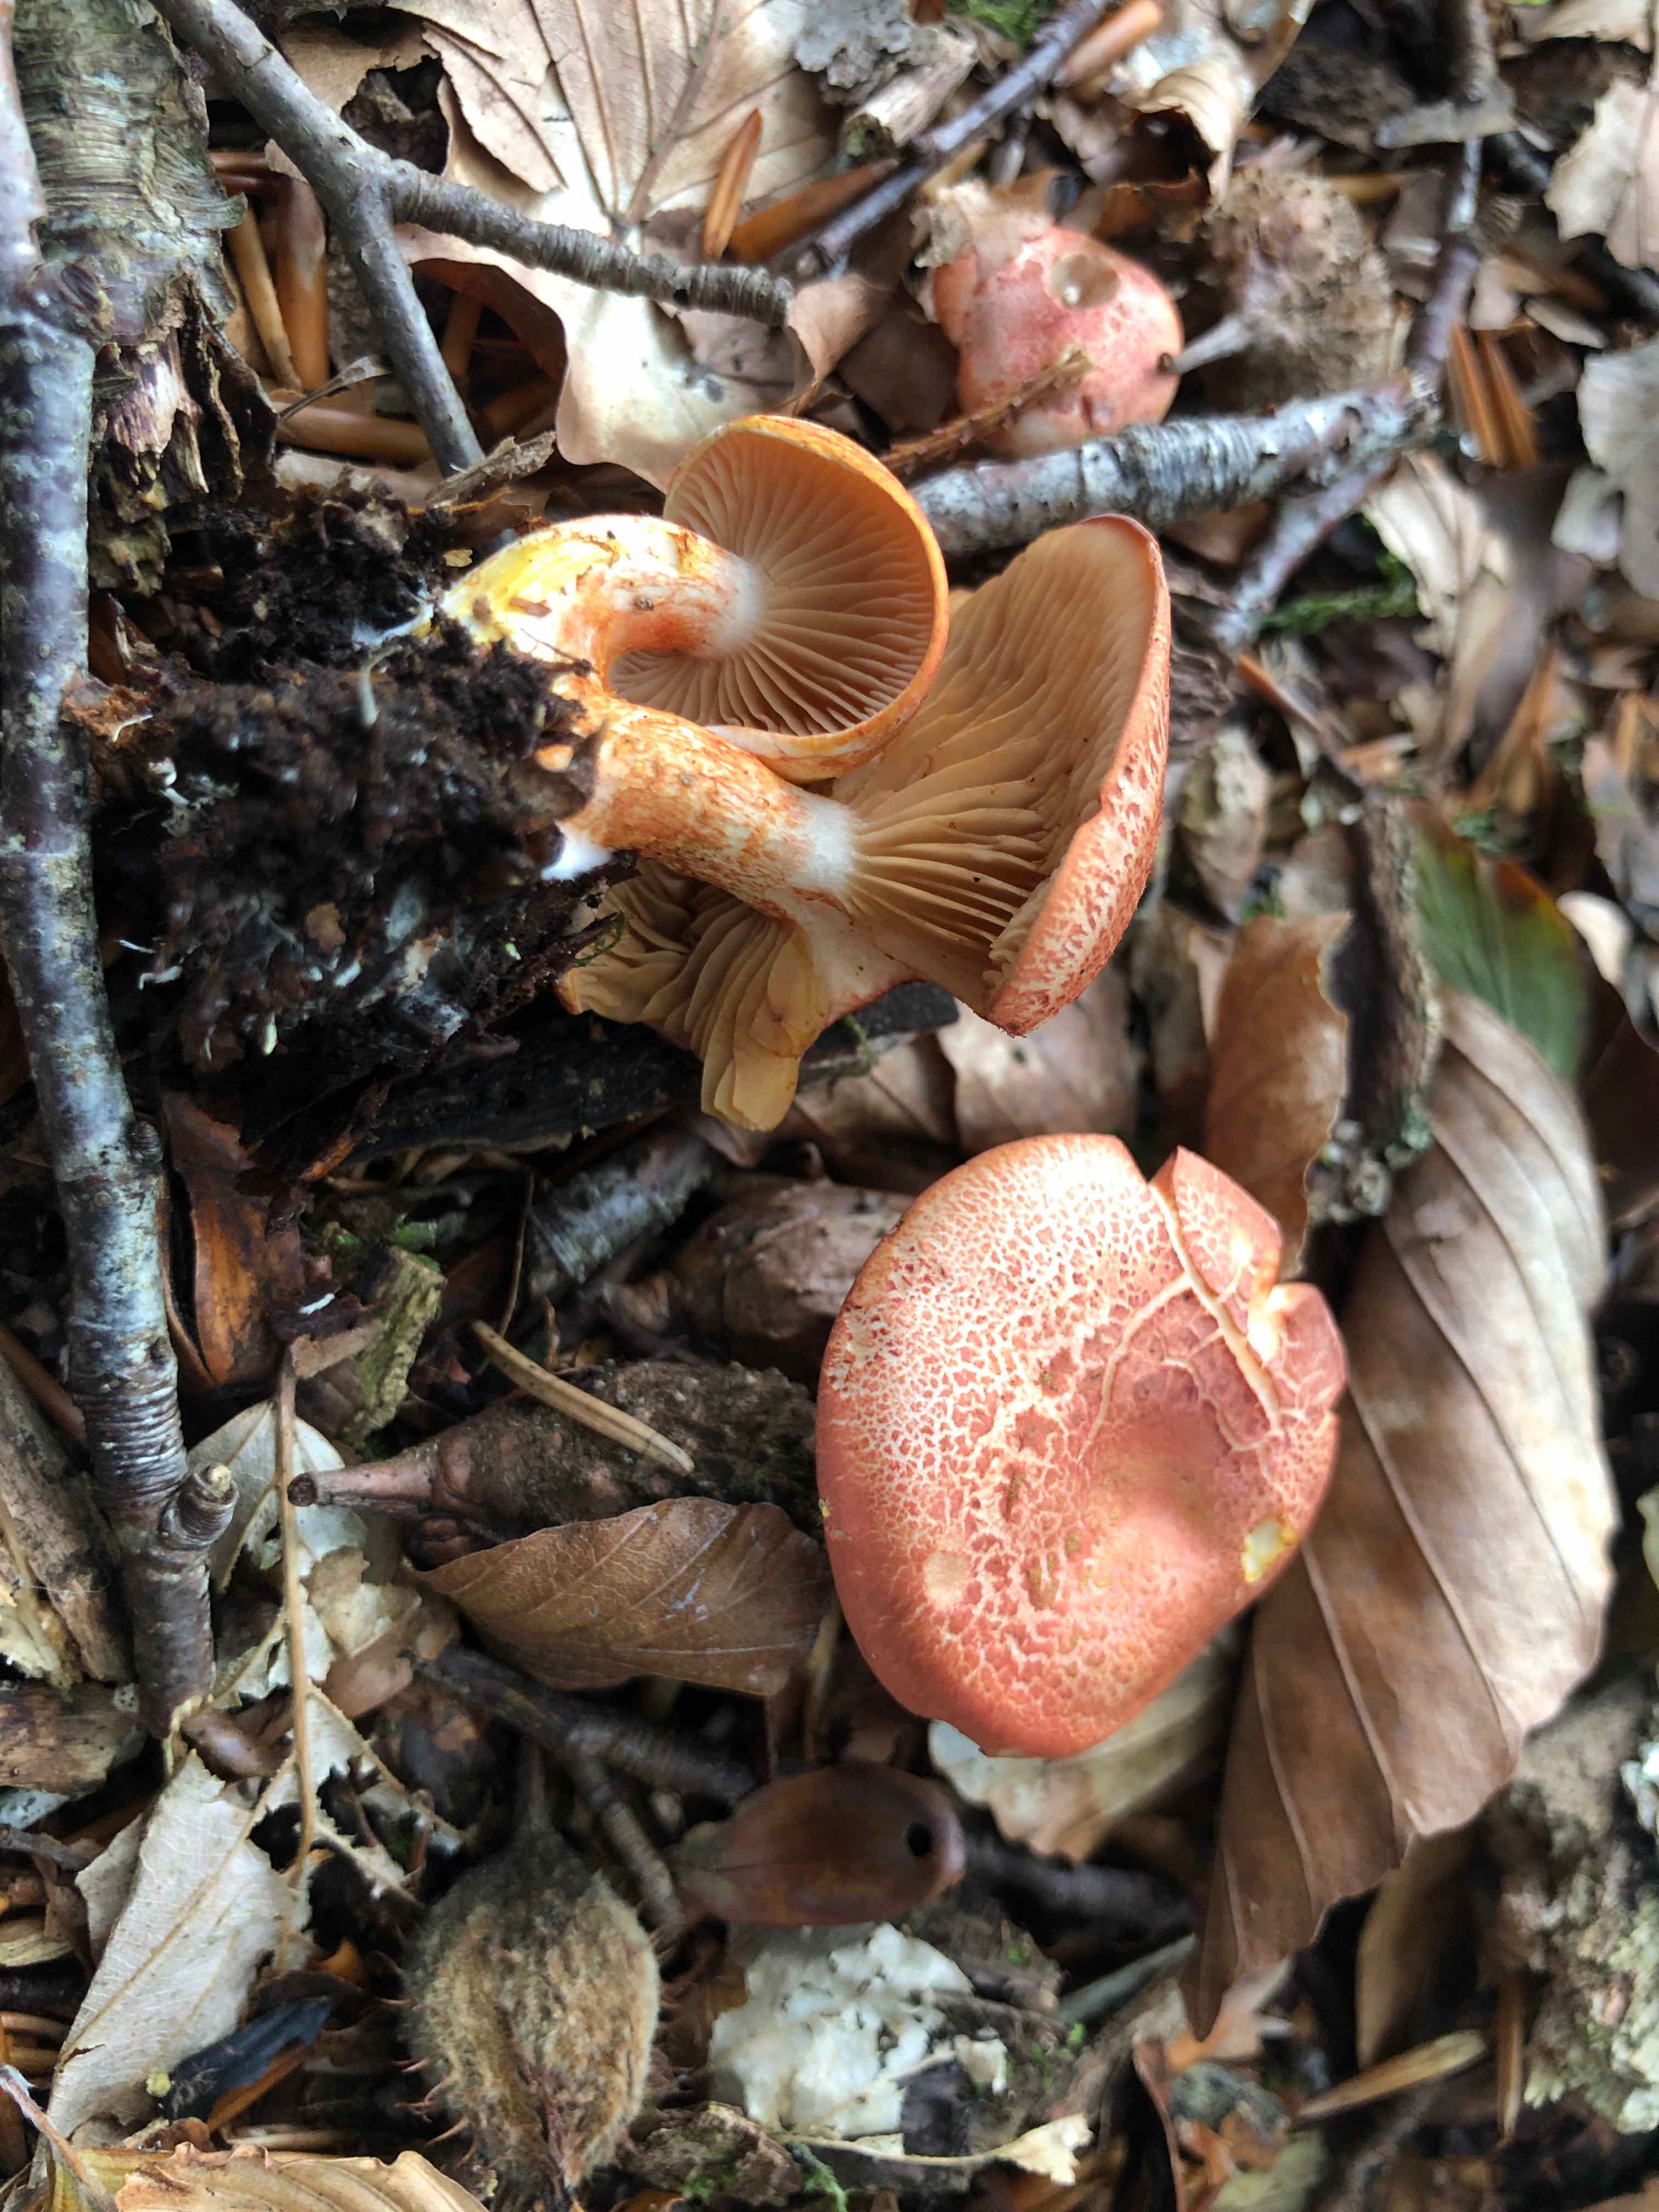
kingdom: Fungi
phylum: Basidiomycota
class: Agaricomycetes
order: Agaricales
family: Cortinariaceae
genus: Cortinarius
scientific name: Cortinarius bolaris
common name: cinnoberskællet slørhat
